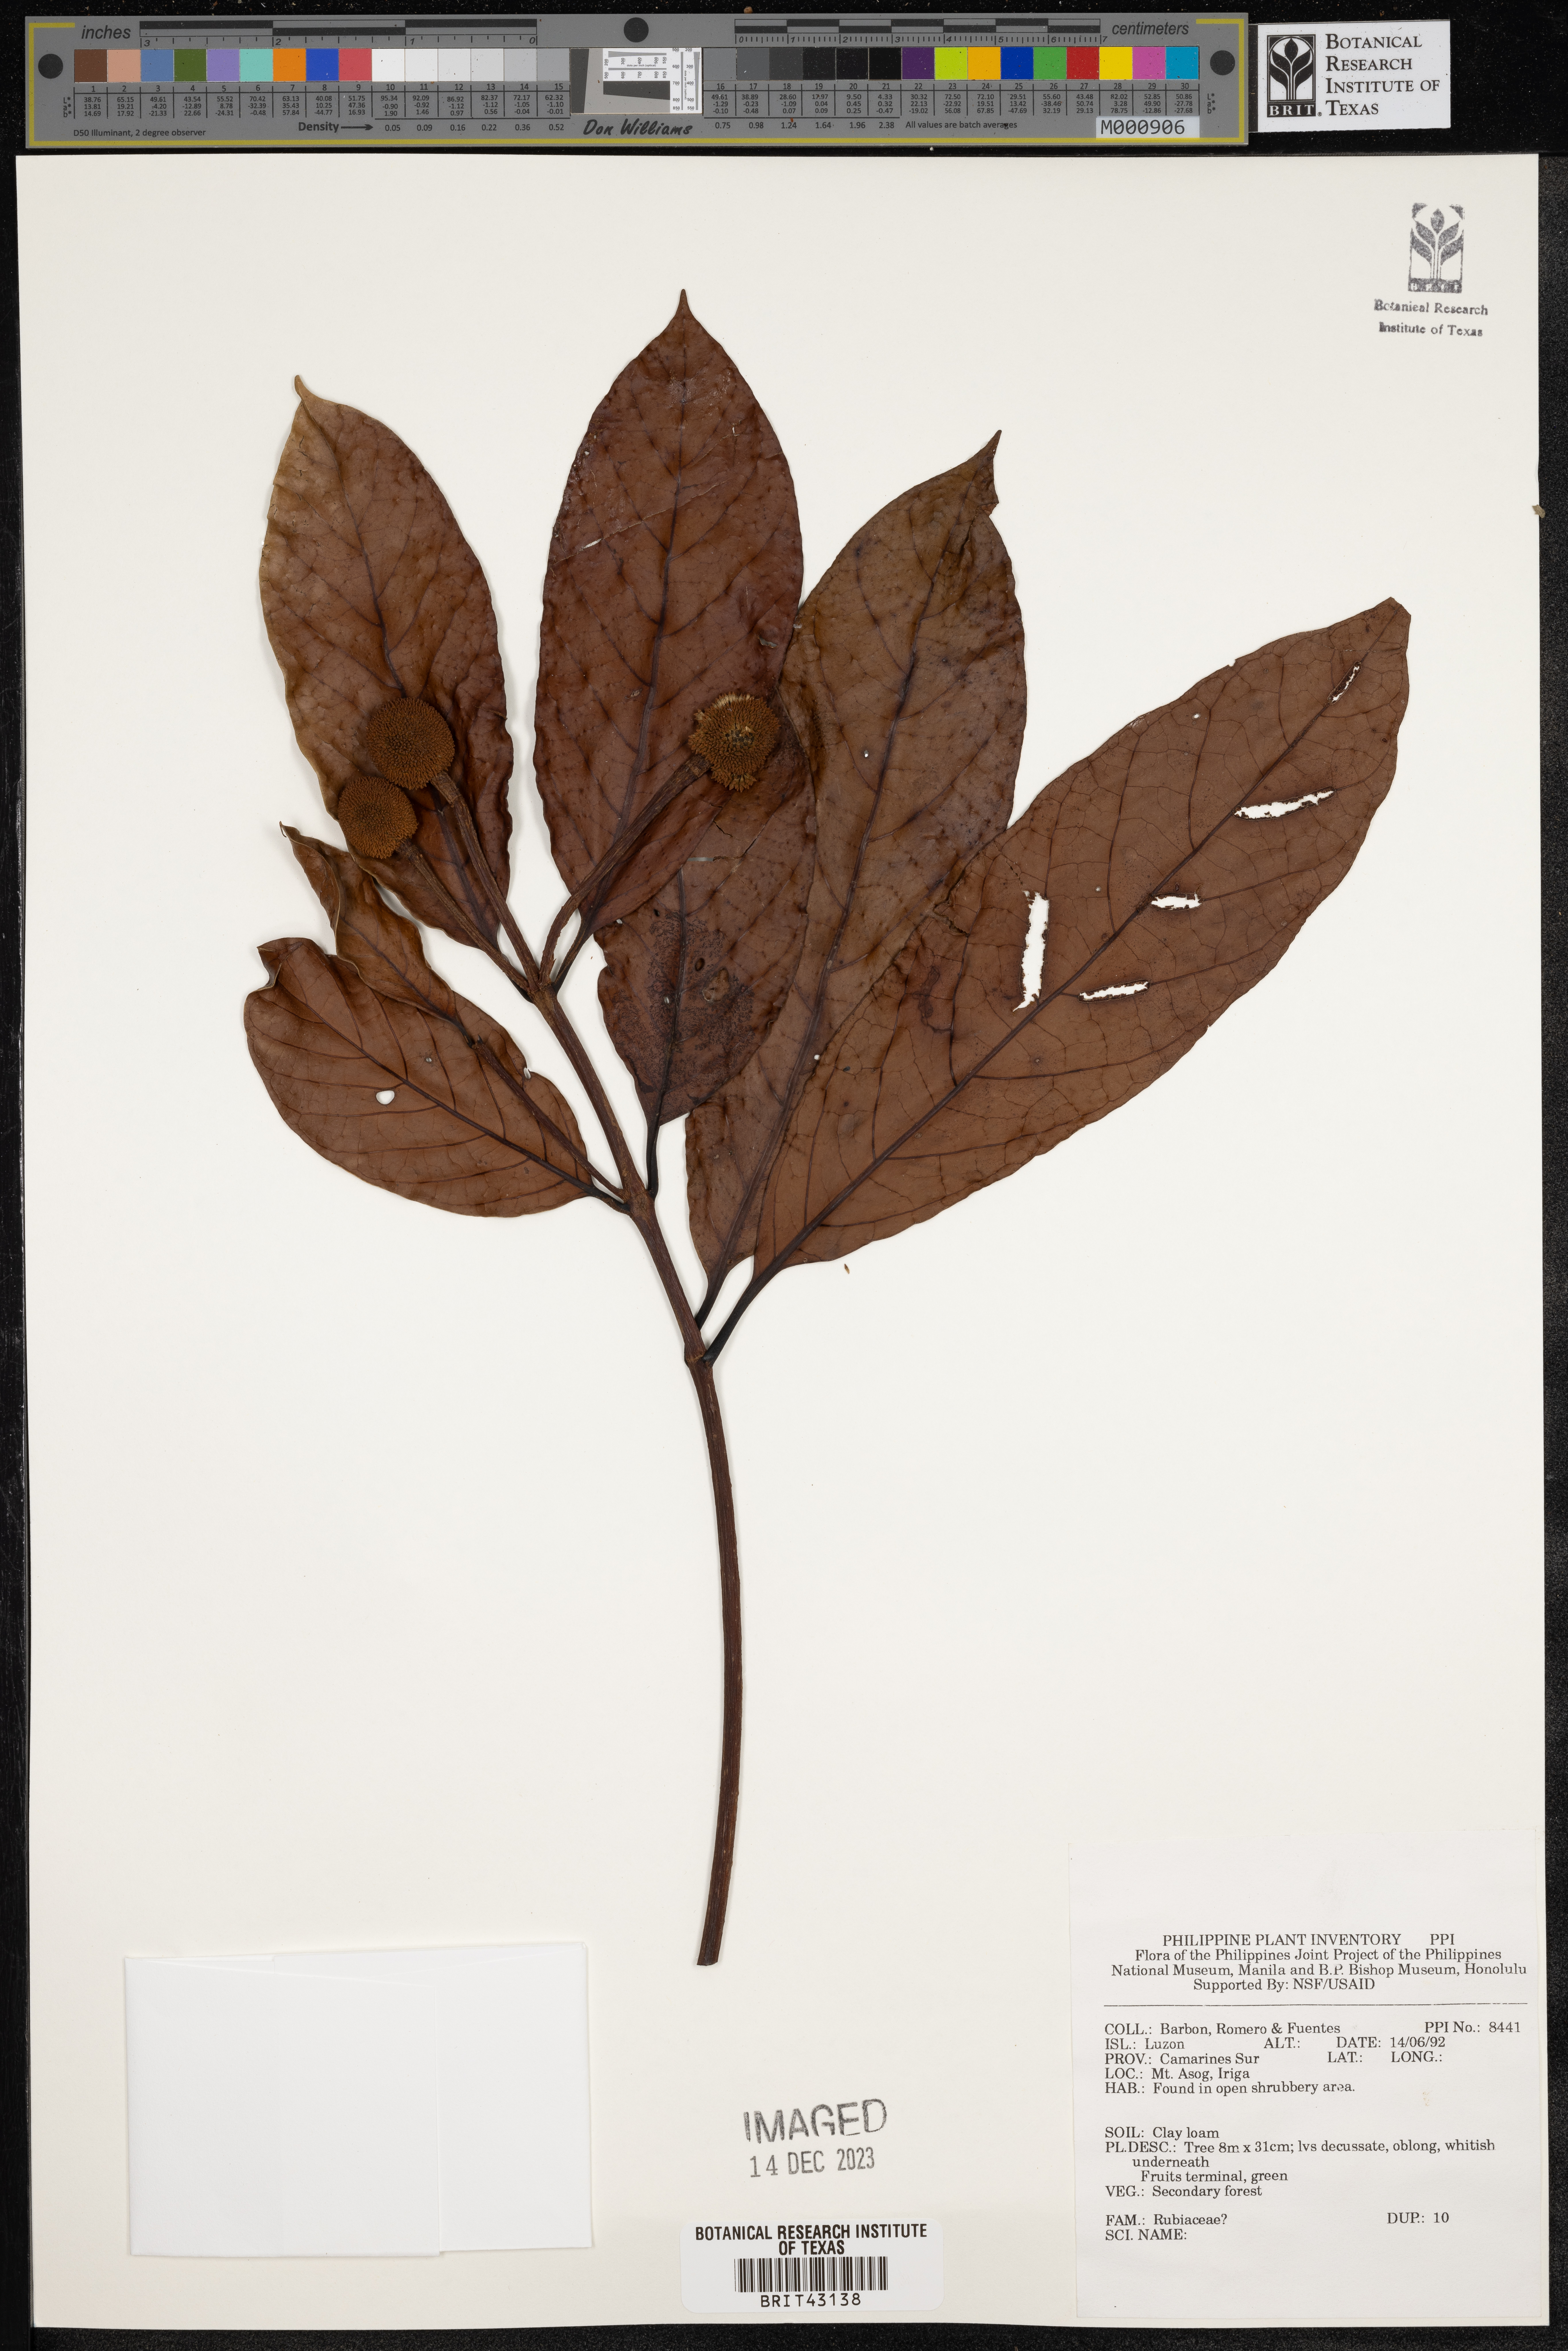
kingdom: Plantae
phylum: Tracheophyta
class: Magnoliopsida
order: Gentianales
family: Rubiaceae
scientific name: Rubiaceae
